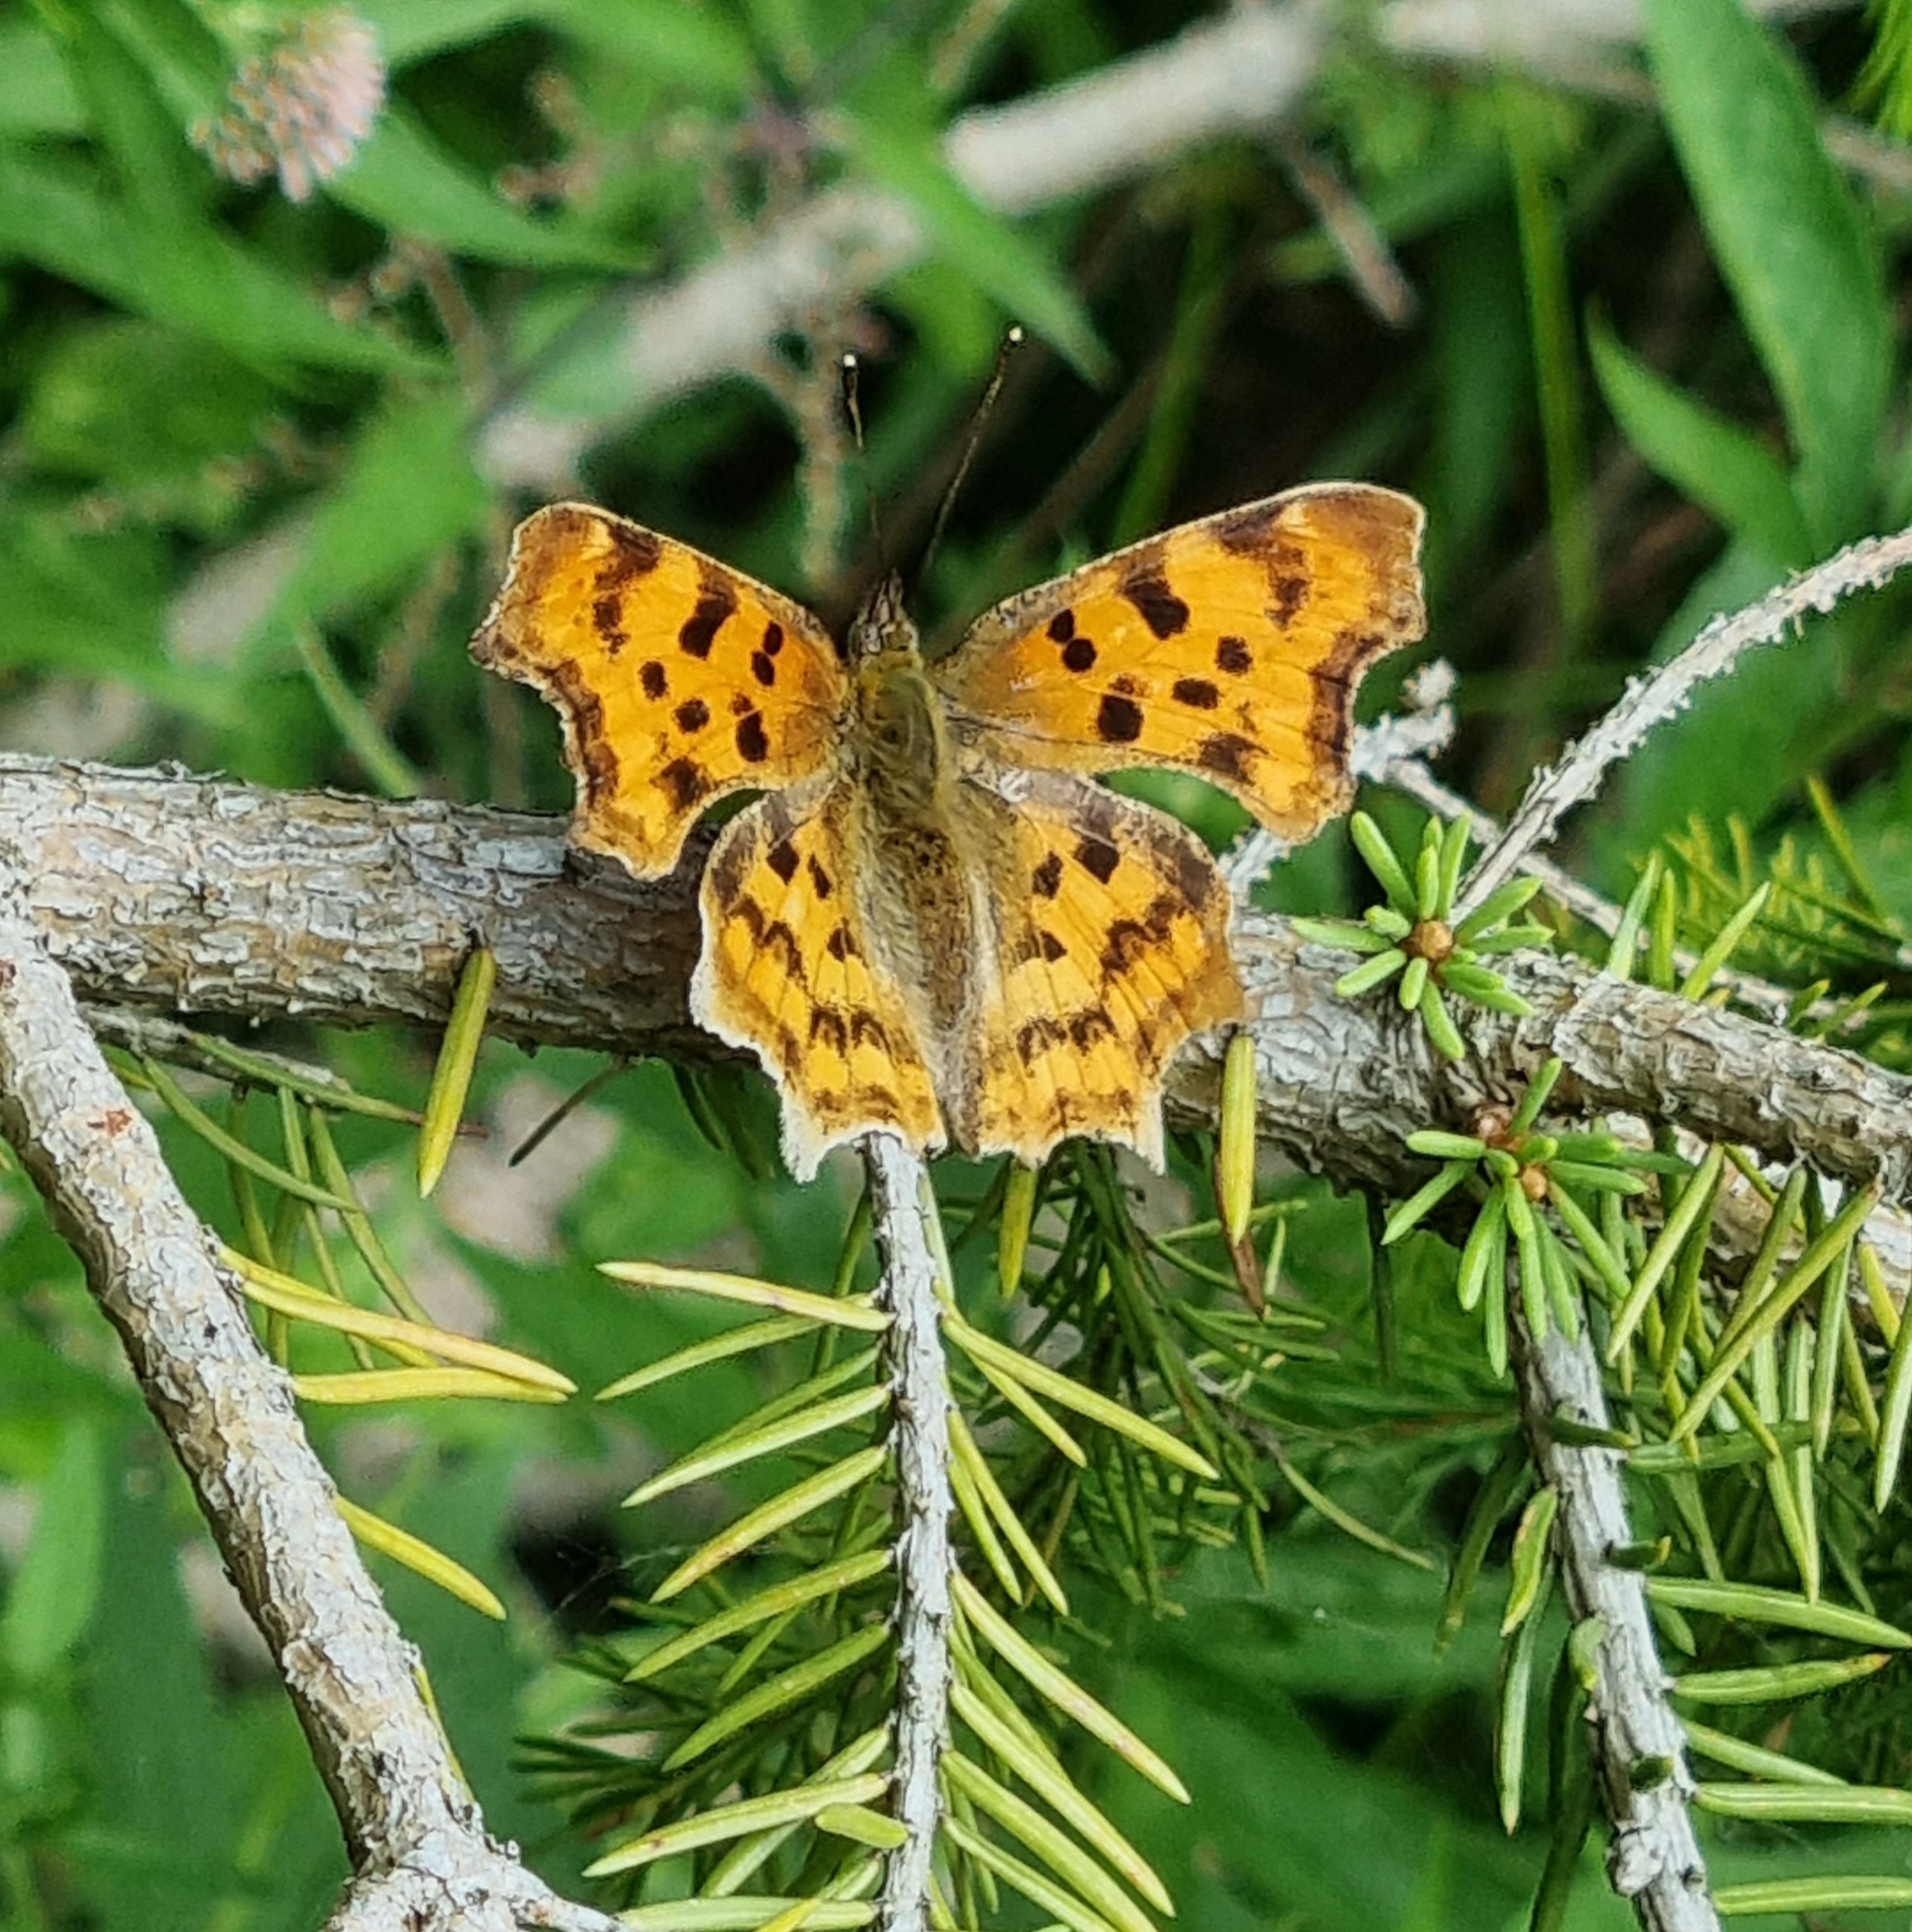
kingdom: Animalia
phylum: Arthropoda
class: Insecta
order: Lepidoptera
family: Nymphalidae
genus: Polygonia
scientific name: Polygonia c-album
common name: Det hvide C
